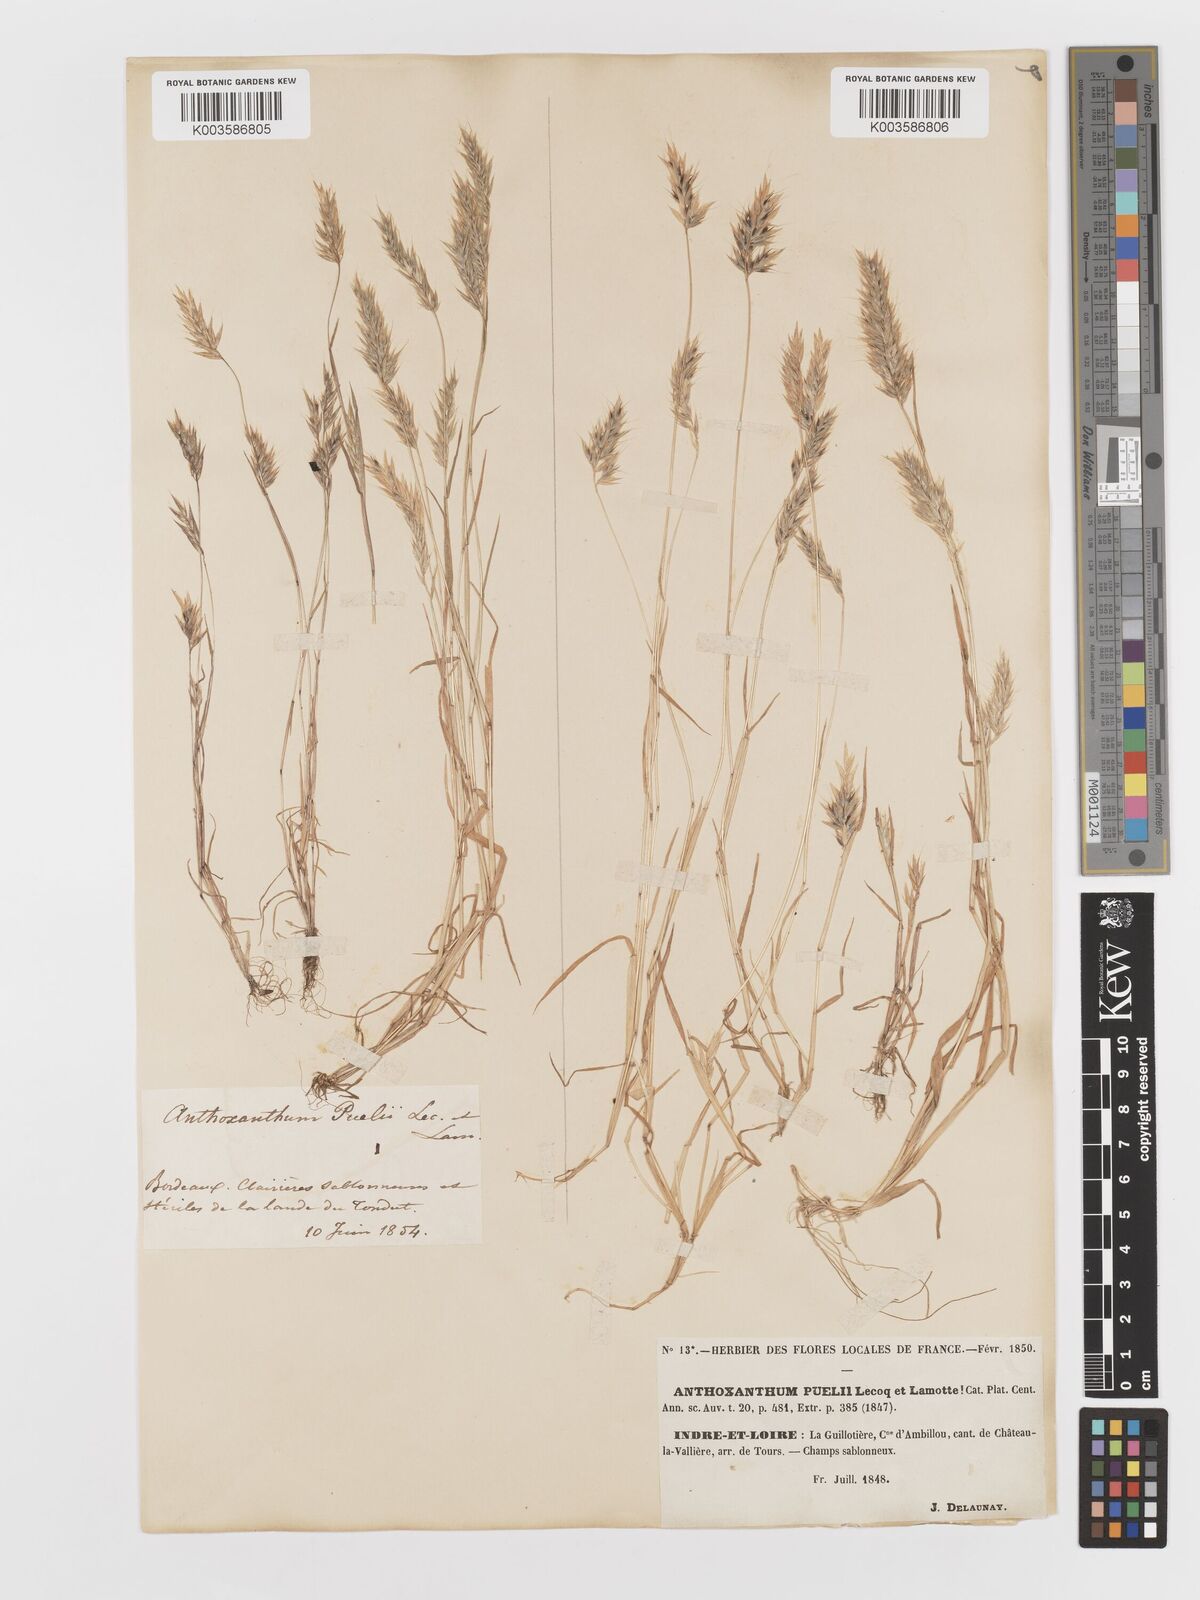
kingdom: Plantae
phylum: Tracheophyta
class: Liliopsida
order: Poales
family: Poaceae
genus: Anthoxanthum
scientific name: Anthoxanthum
